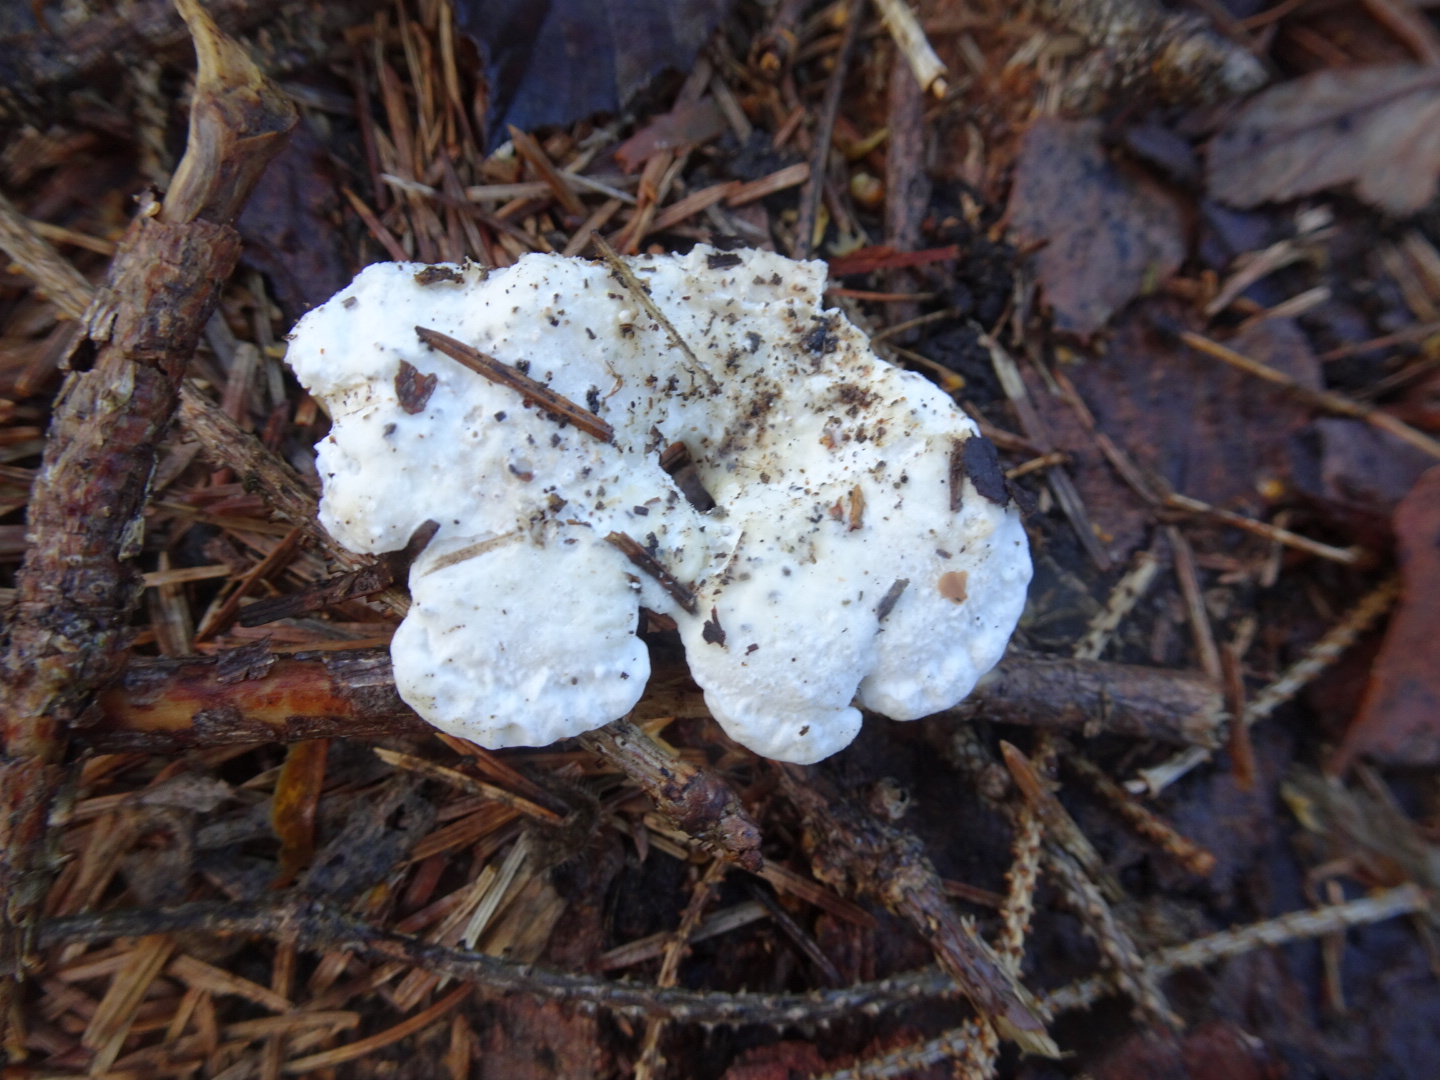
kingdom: Fungi
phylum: Basidiomycota
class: Agaricomycetes
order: Polyporales
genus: Amaropostia
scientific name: Amaropostia stiptica
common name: bitter kødporesvamp
